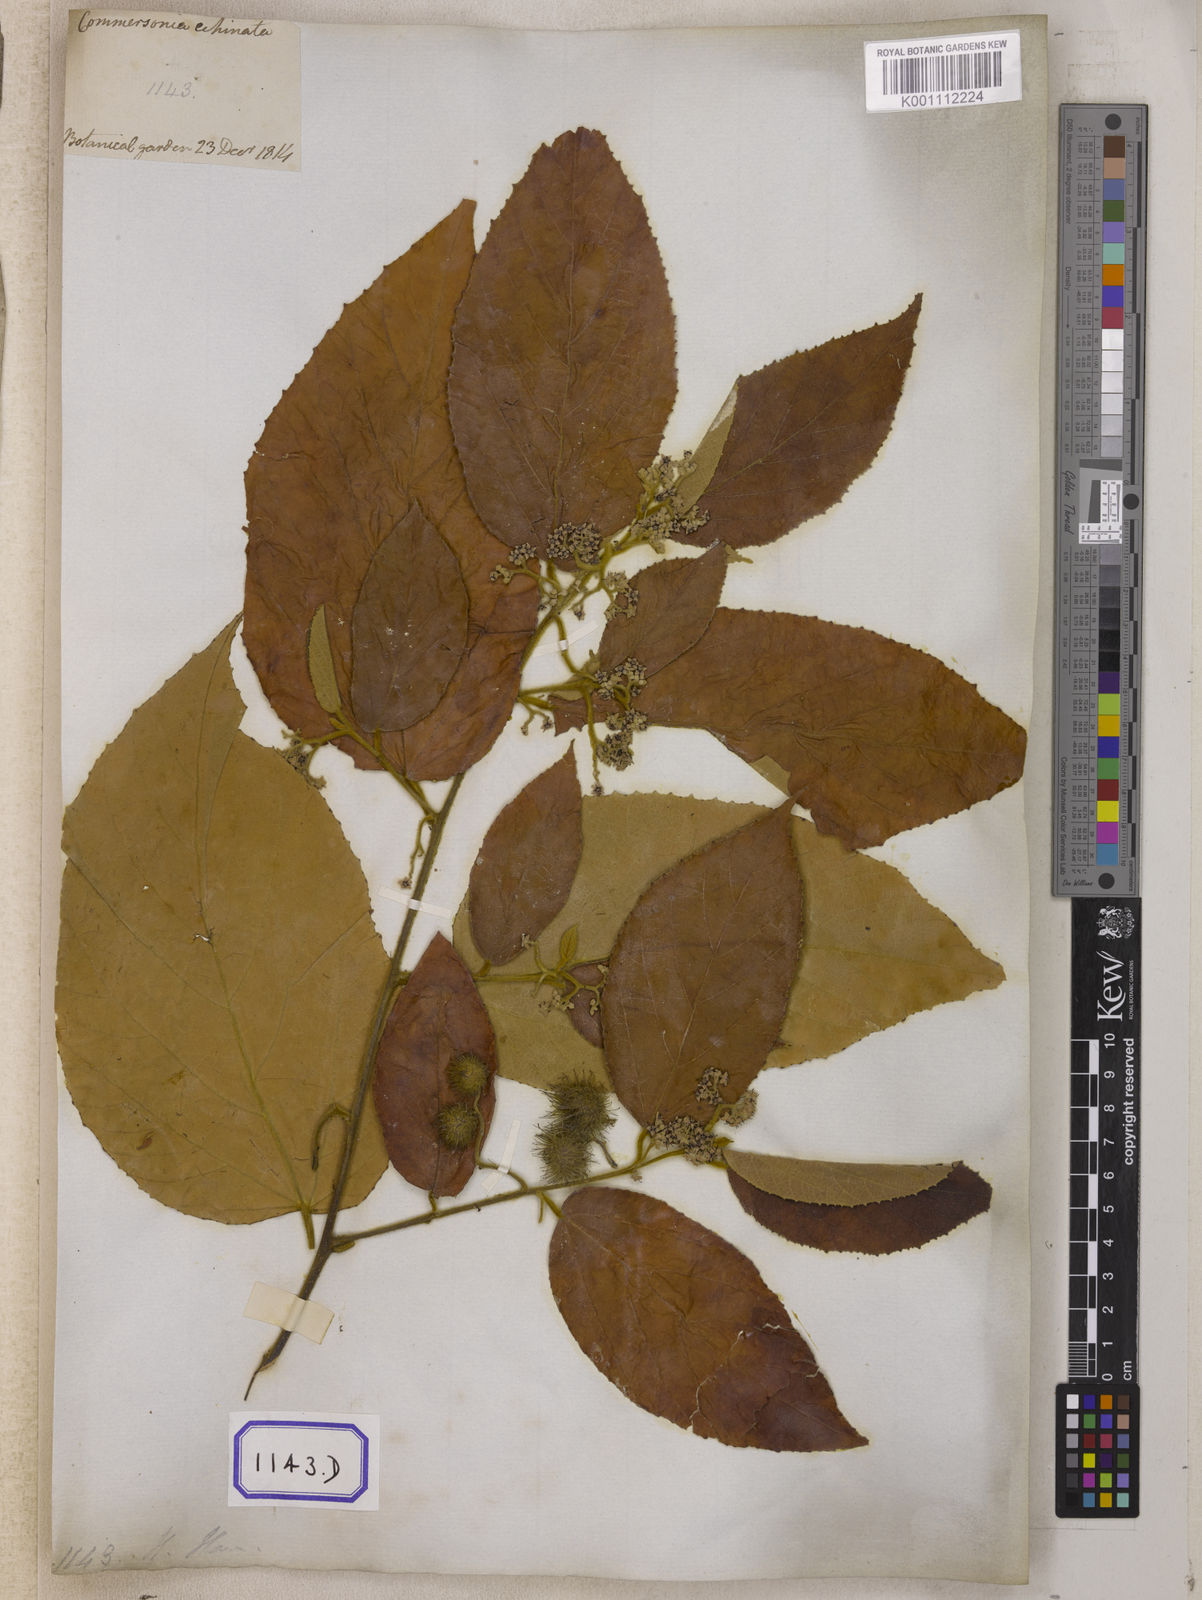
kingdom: Plantae
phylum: Tracheophyta
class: Magnoliopsida
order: Malvales
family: Malvaceae
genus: Commersonia
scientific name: Commersonia bartramia
